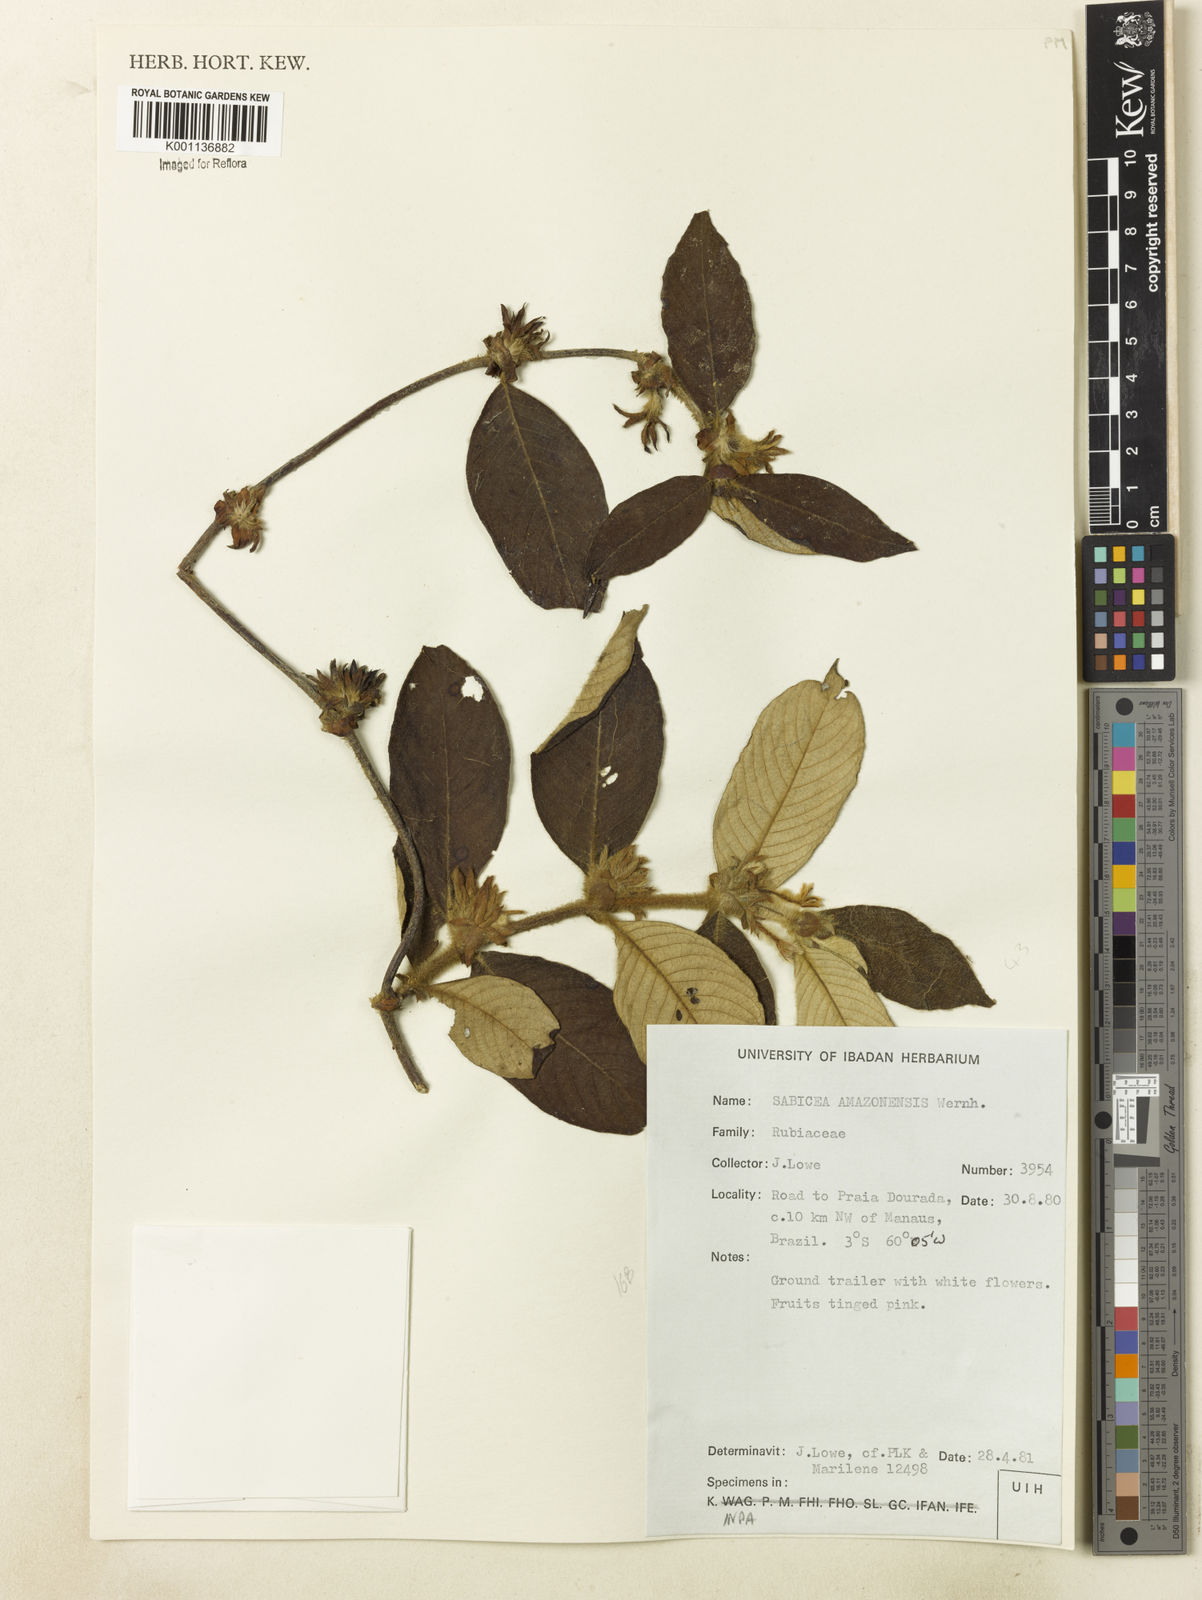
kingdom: Plantae
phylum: Tracheophyta
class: Magnoliopsida
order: Gentianales
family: Rubiaceae
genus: Sabicea
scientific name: Sabicea amazonensis
